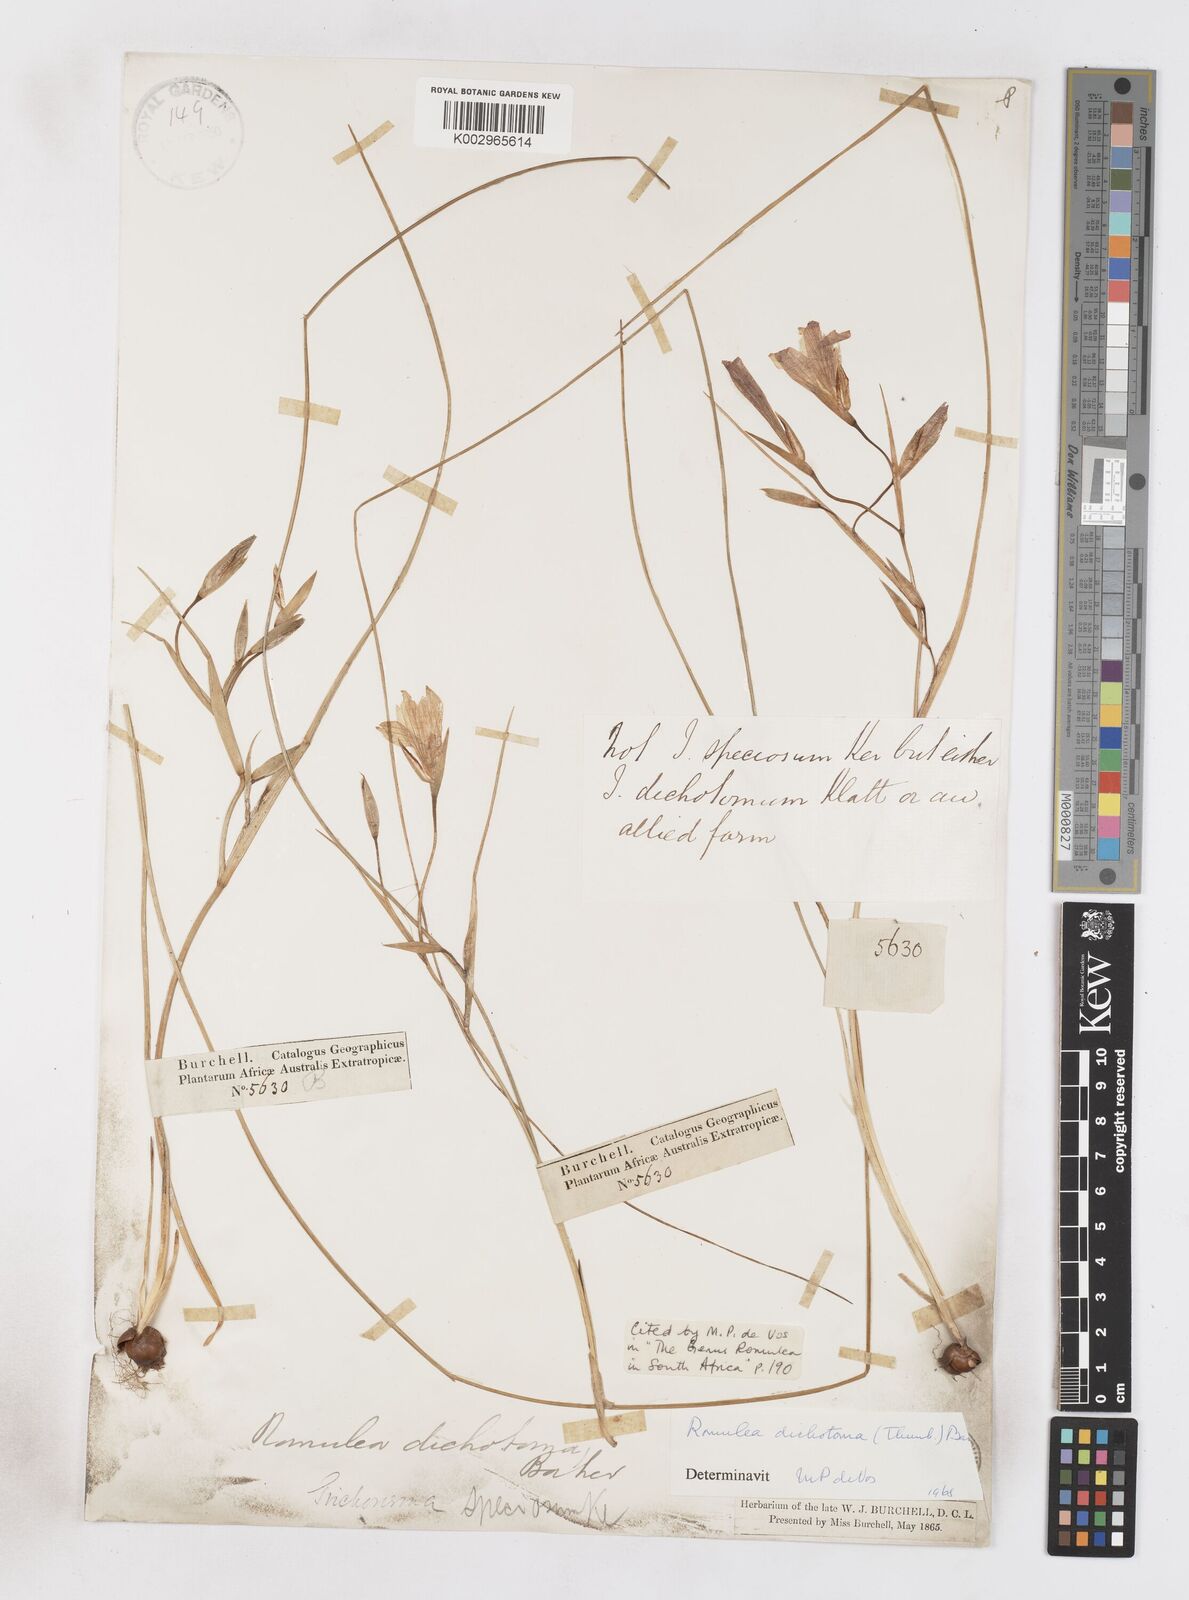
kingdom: Plantae
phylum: Tracheophyta
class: Liliopsida
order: Asparagales
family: Iridaceae
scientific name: Iridaceae
